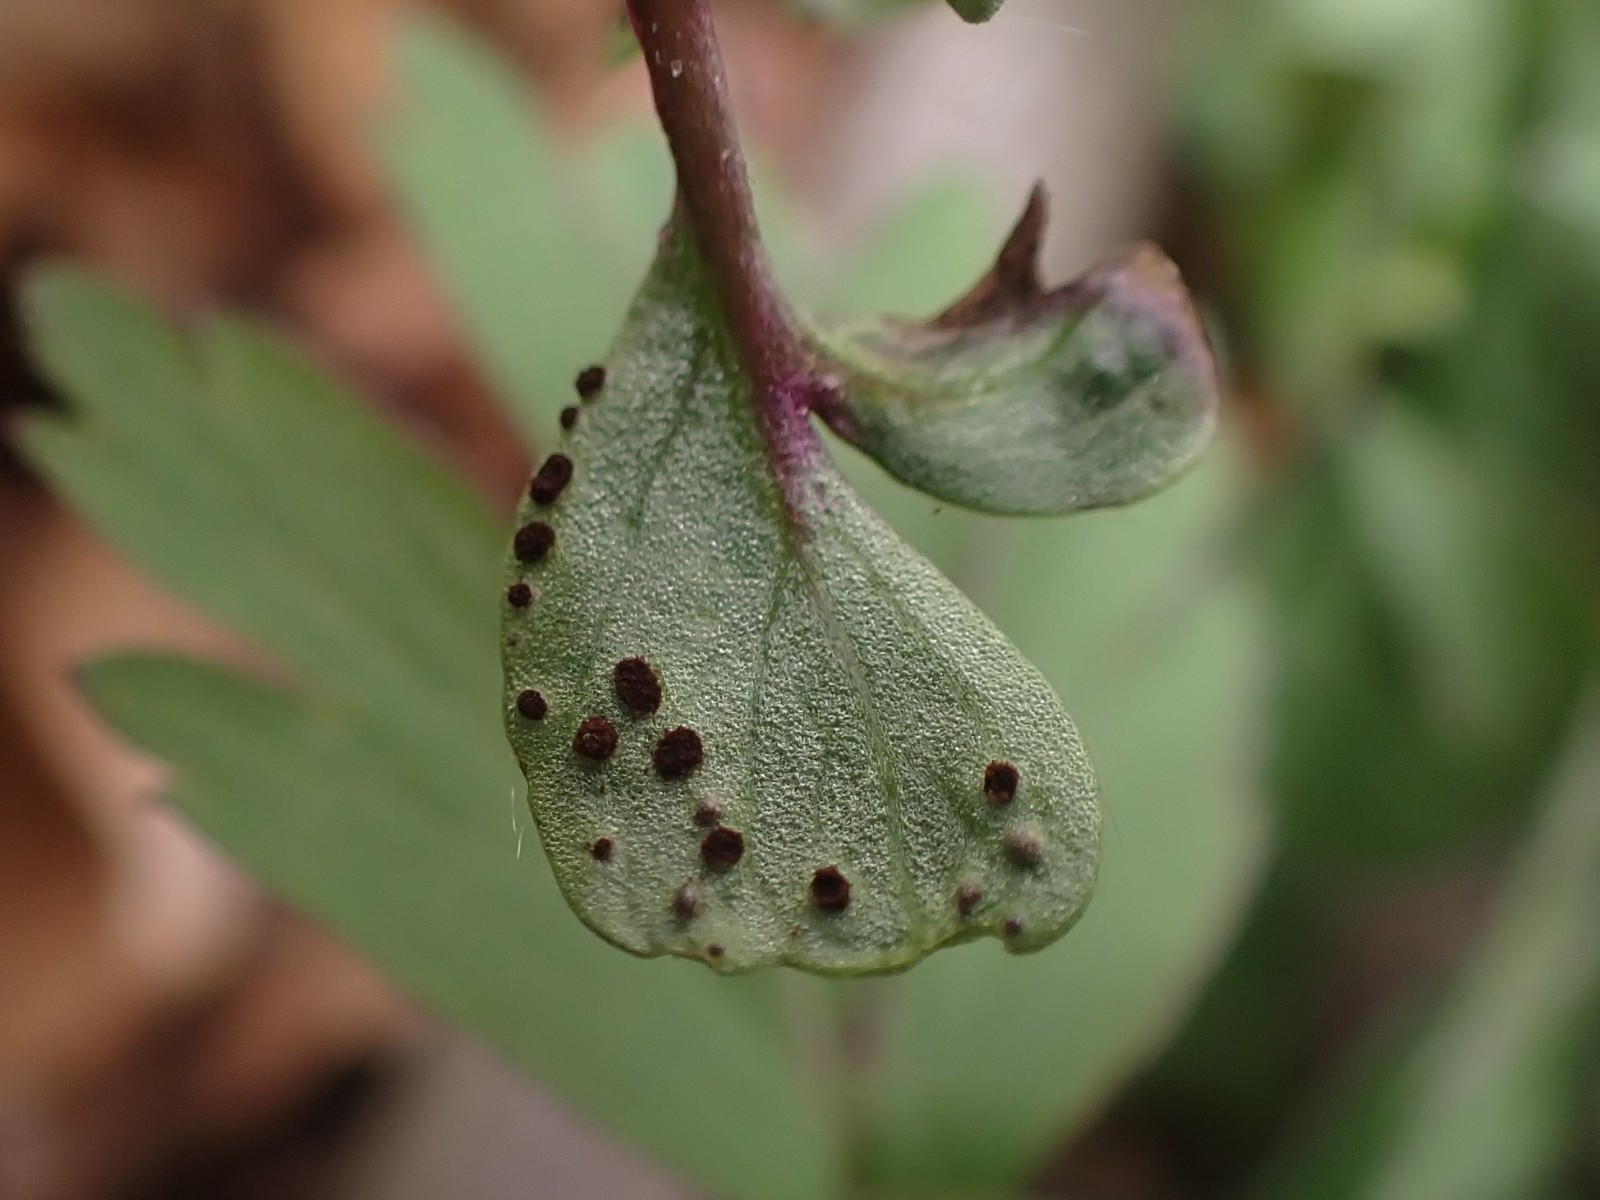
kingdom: Fungi
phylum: Basidiomycota
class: Pucciniomycetes
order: Pucciniales
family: Tranzscheliaceae
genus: Tranzschelia
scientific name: Tranzschelia anemones
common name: anemone-knæksporerust
